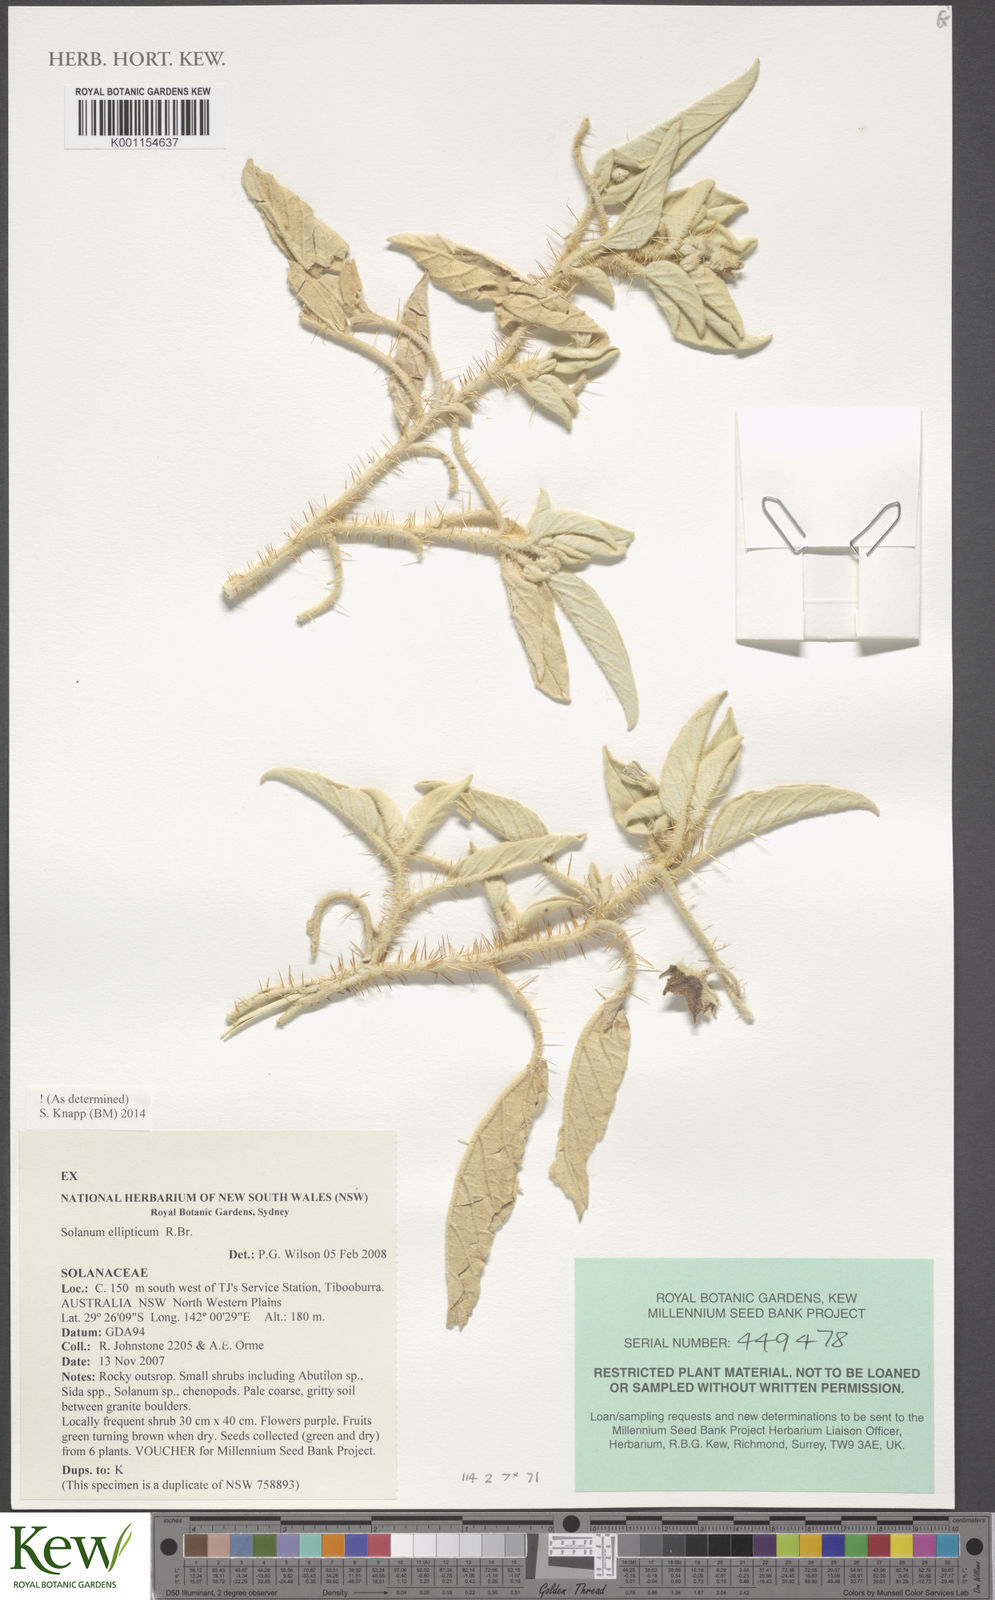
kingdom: Plantae
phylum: Tracheophyta
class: Magnoliopsida
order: Solanales
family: Solanaceae
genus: Solanum
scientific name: Solanum ellipticum
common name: Potato-bush
